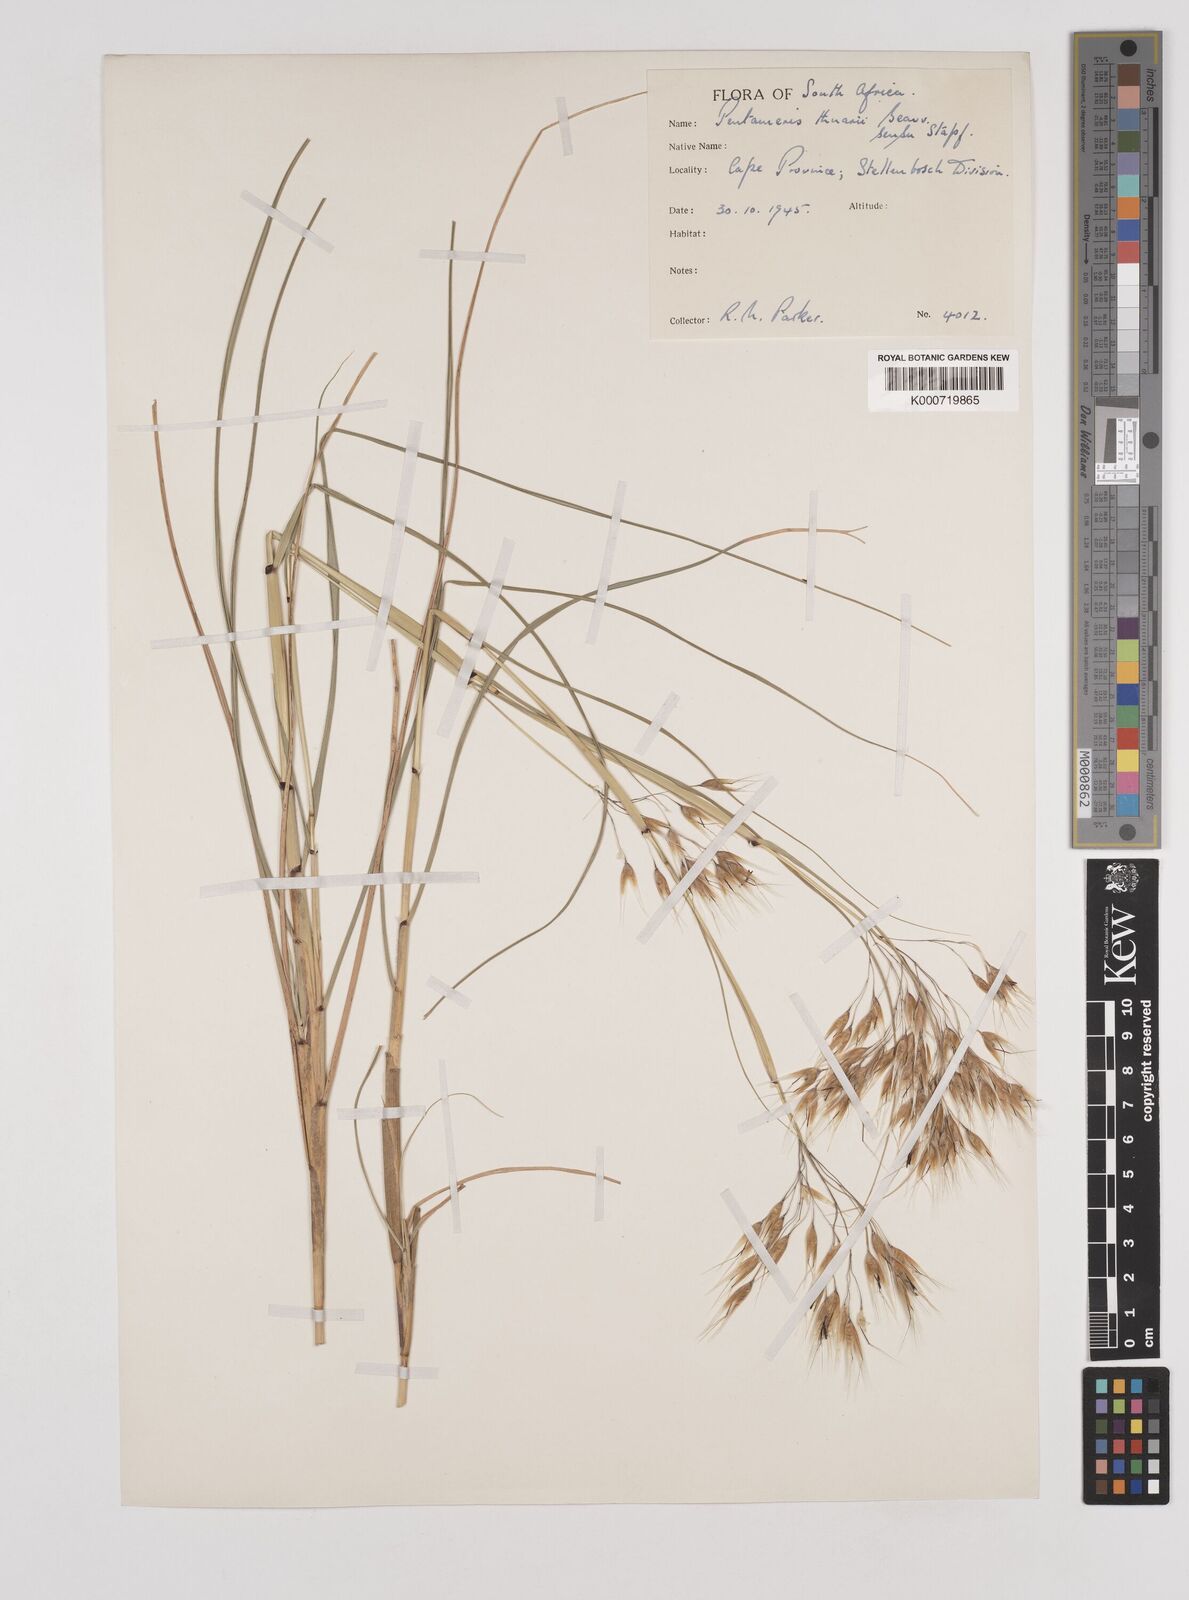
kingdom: Plantae
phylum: Tracheophyta
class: Liliopsida
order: Poales
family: Poaceae
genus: Pentameris
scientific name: Pentameris thuarii
